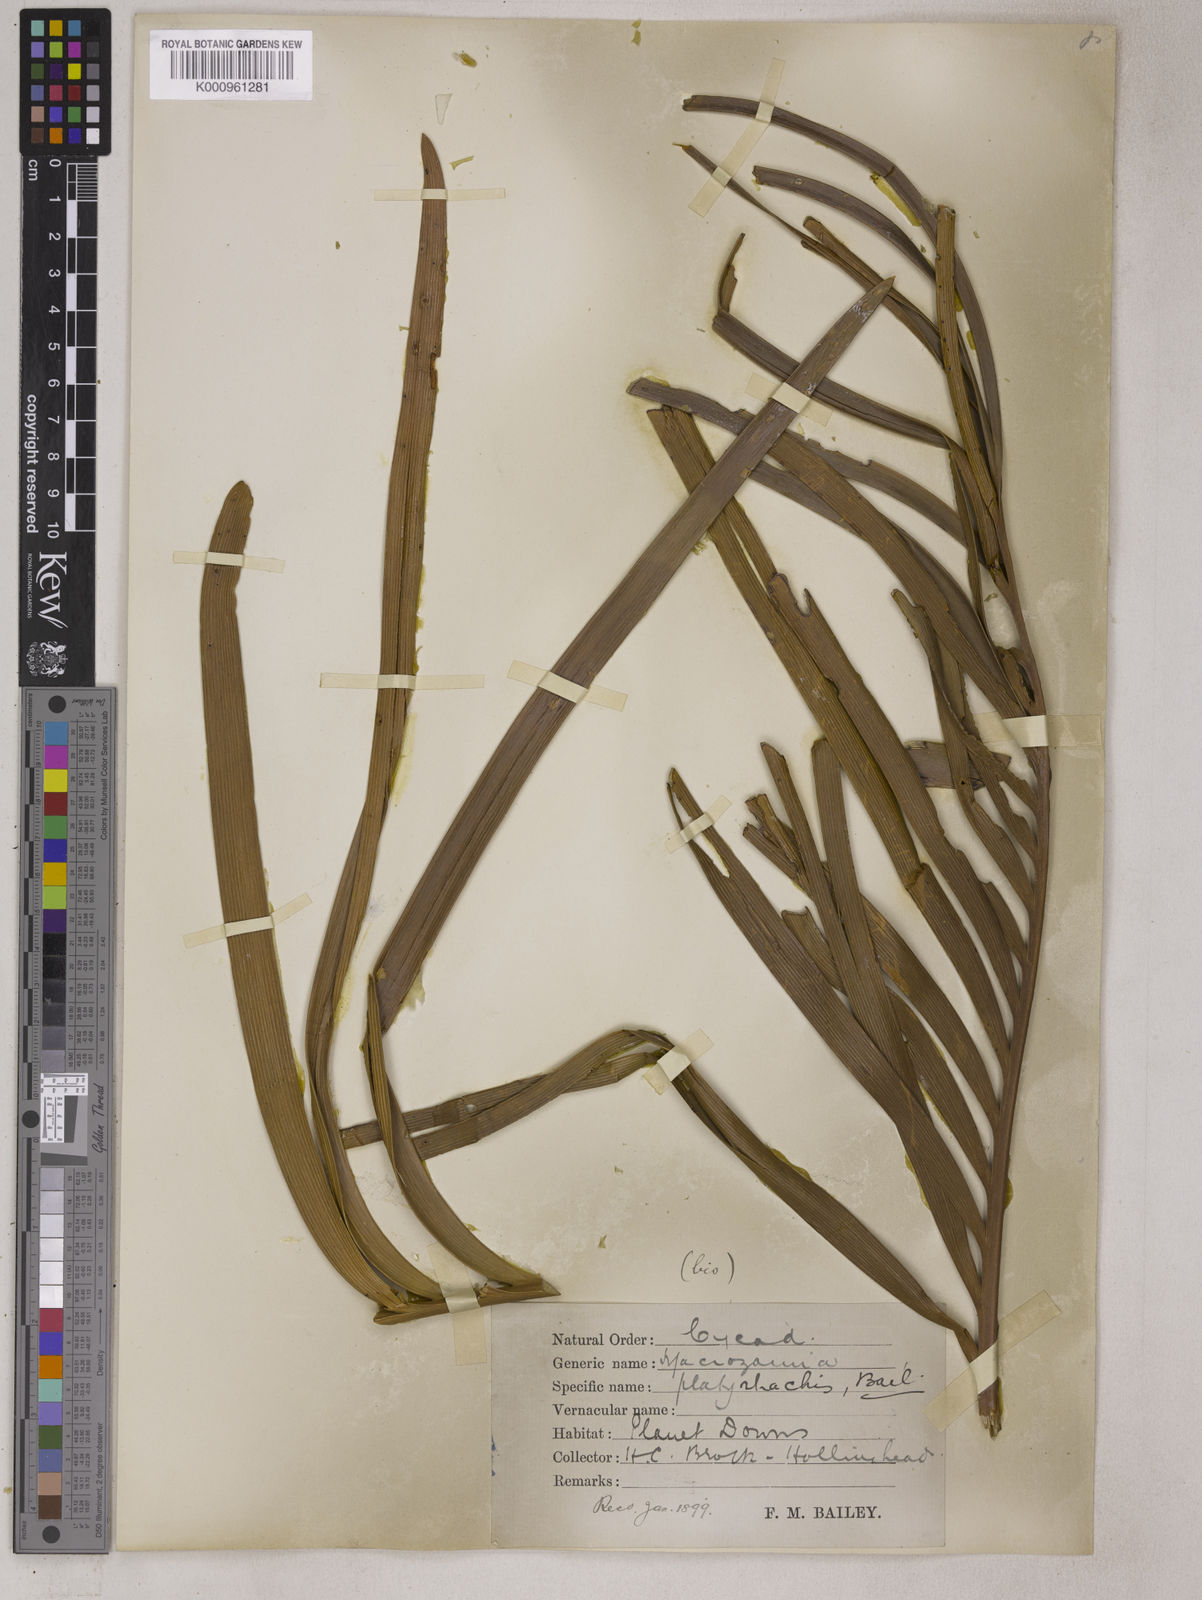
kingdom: Plantae
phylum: Tracheophyta
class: Cycadopsida
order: Cycadales
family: Zamiaceae
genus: Macrozamia
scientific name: Macrozamia platyrhachis
